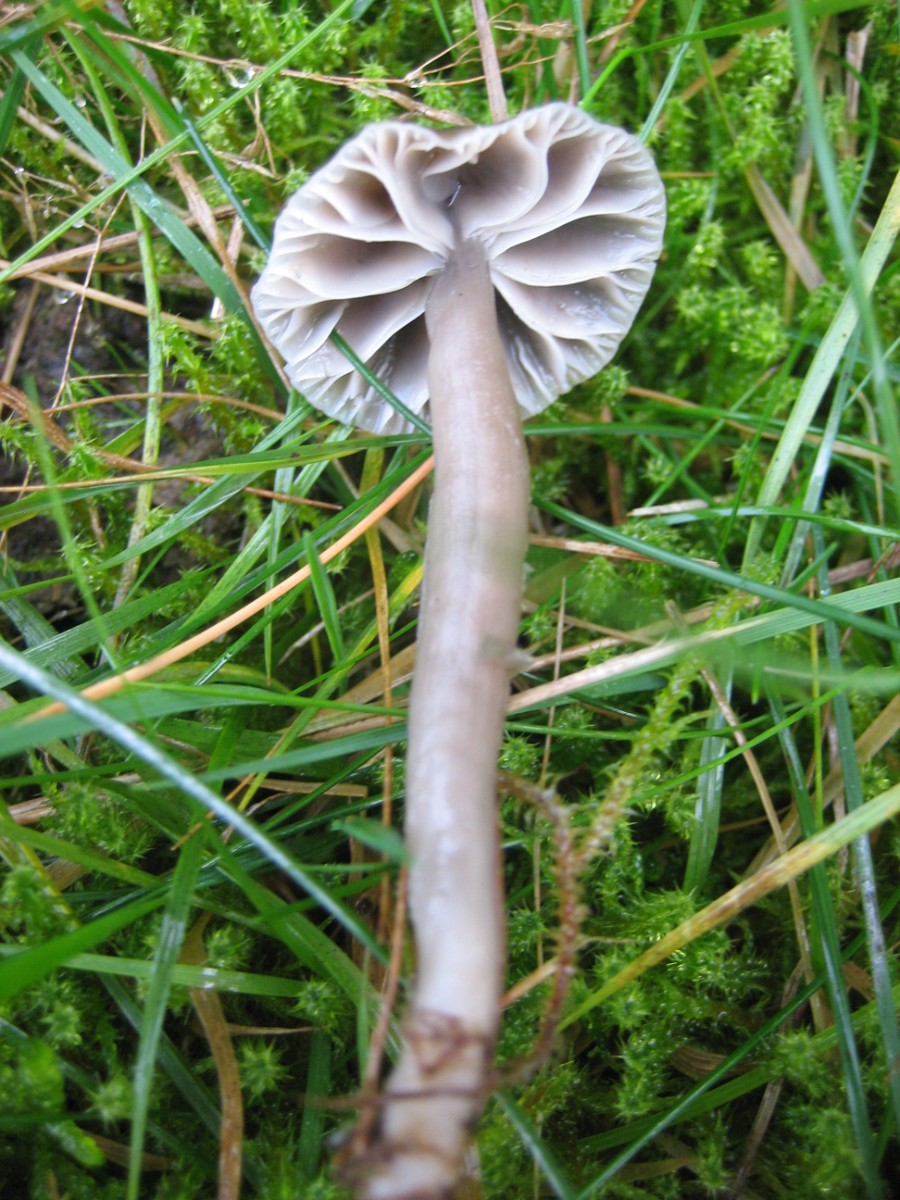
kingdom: Fungi
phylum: Basidiomycota
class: Agaricomycetes
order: Agaricales
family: Hygrophoraceae
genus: Gliophorus
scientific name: Gliophorus irrigatus
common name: slimet vokshat
